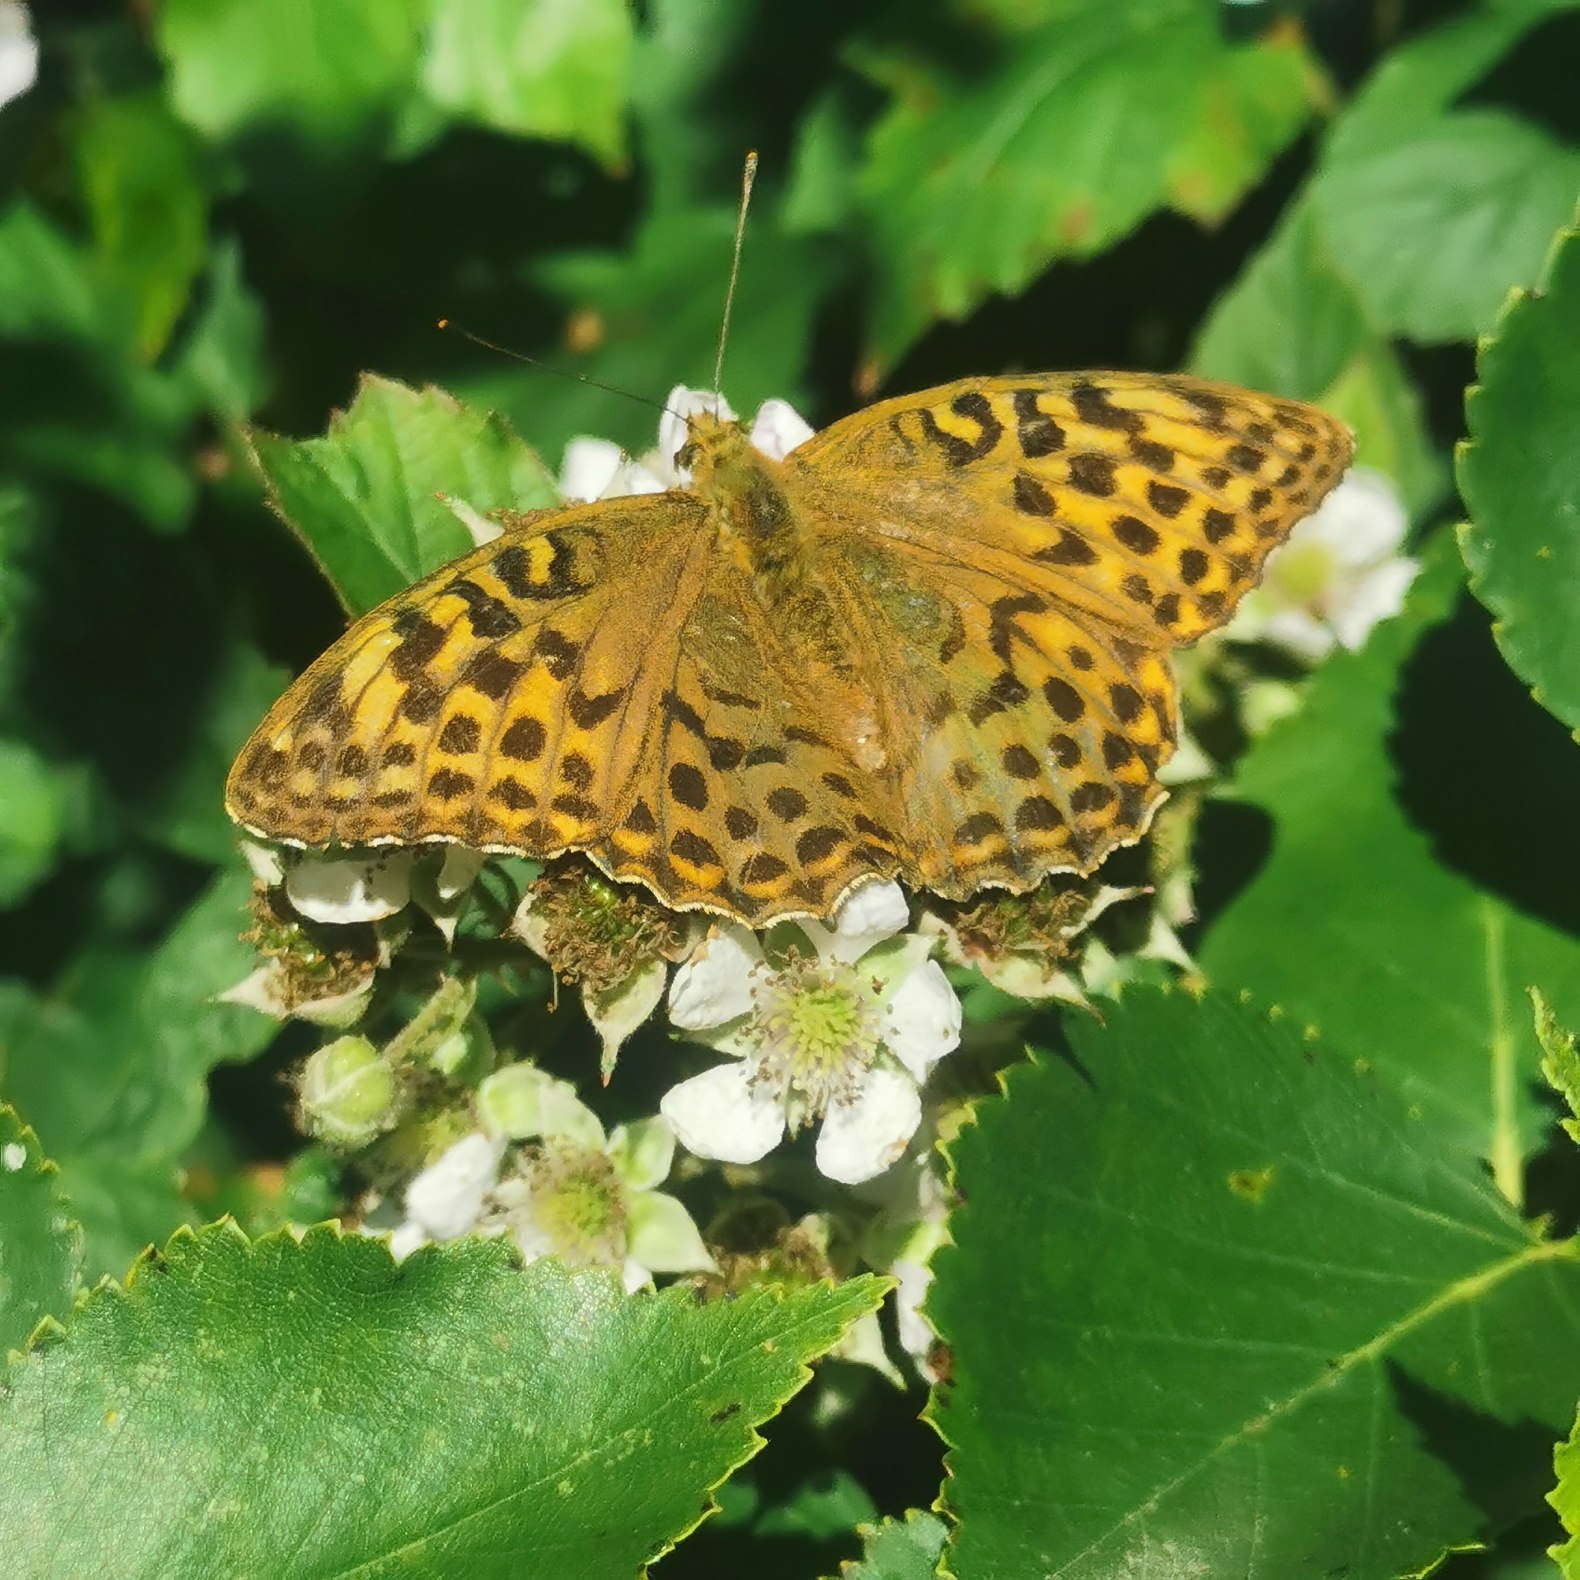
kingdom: Animalia
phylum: Arthropoda
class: Insecta
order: Lepidoptera
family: Nymphalidae
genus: Argynnis
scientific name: Argynnis paphia
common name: Kejserkåbe
